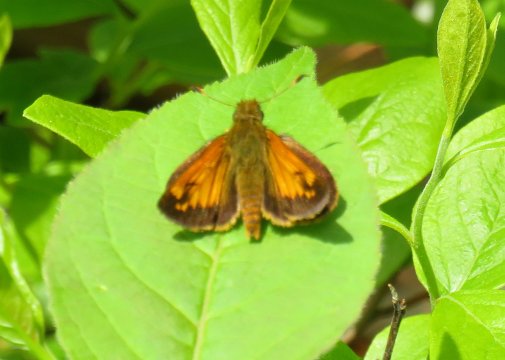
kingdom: Animalia
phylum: Arthropoda
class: Insecta
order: Lepidoptera
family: Hesperiidae
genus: Lon
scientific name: Lon hobomok
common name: Hobomok Skipper
